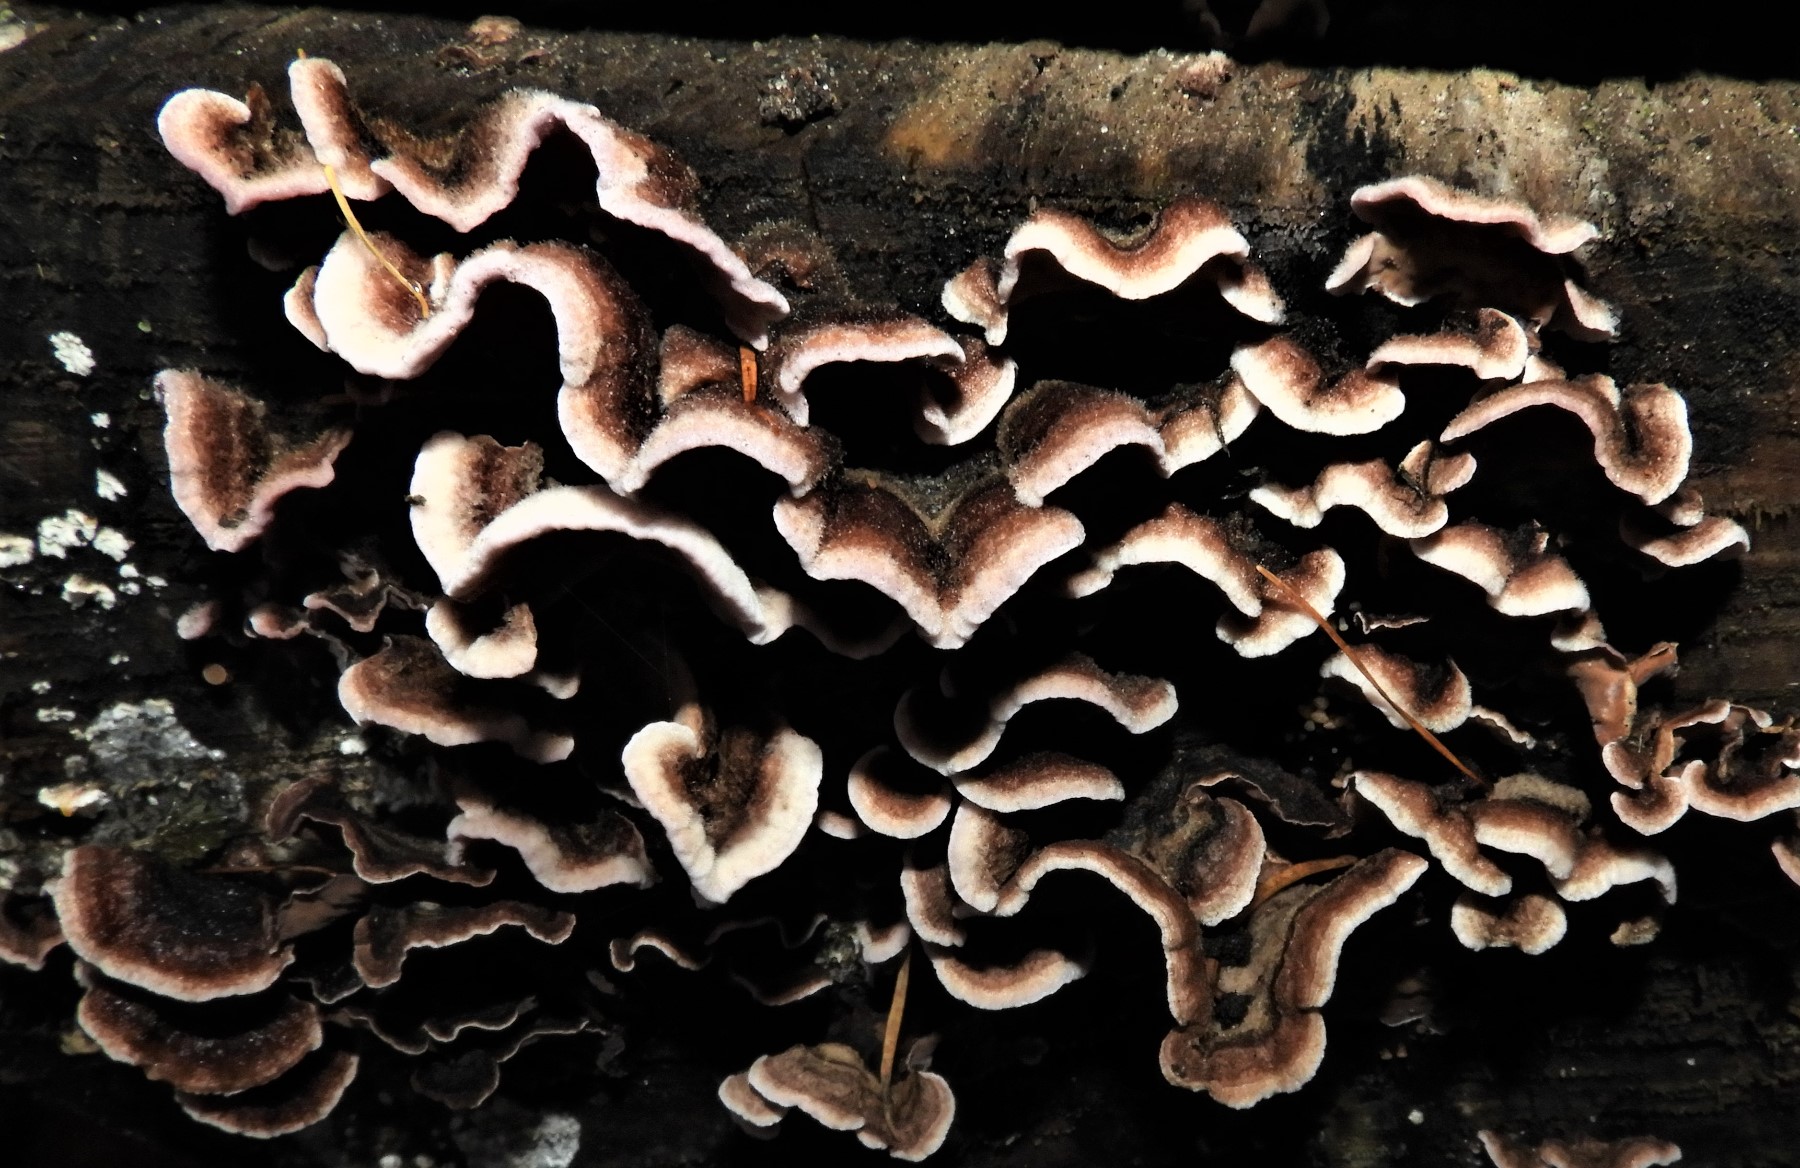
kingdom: Fungi
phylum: Basidiomycota
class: Agaricomycetes
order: Agaricales
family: Cyphellaceae
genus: Chondrostereum
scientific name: Chondrostereum purpureum
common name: purpurlædersvamp
